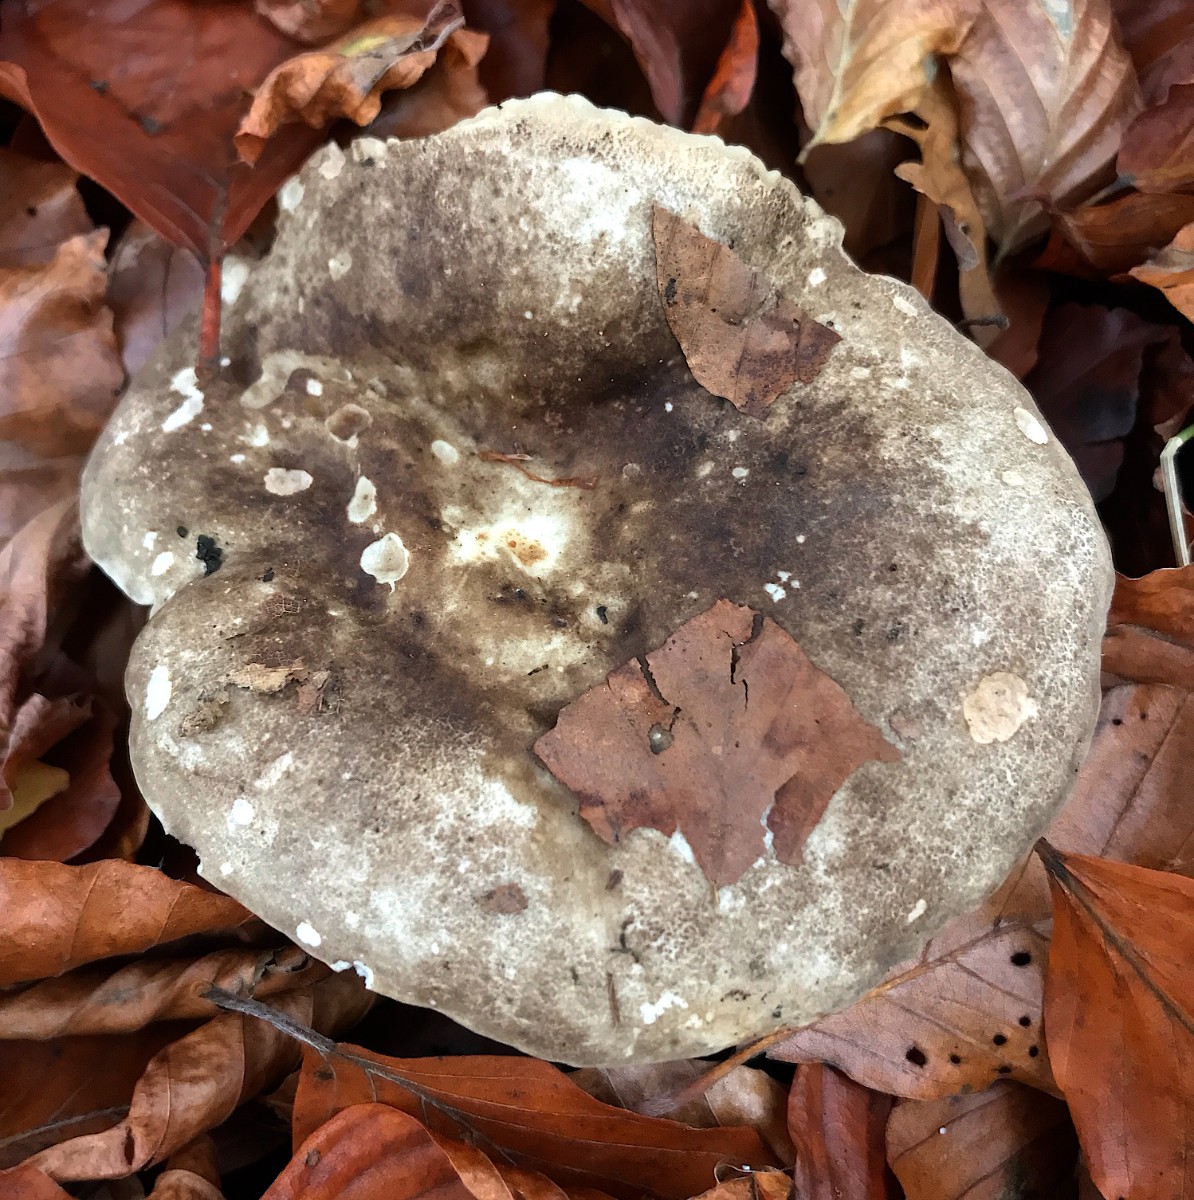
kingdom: Fungi
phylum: Basidiomycota
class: Agaricomycetes
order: Russulales
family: Russulaceae
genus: Russula
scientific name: Russula adusta
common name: sværtende skørhat
